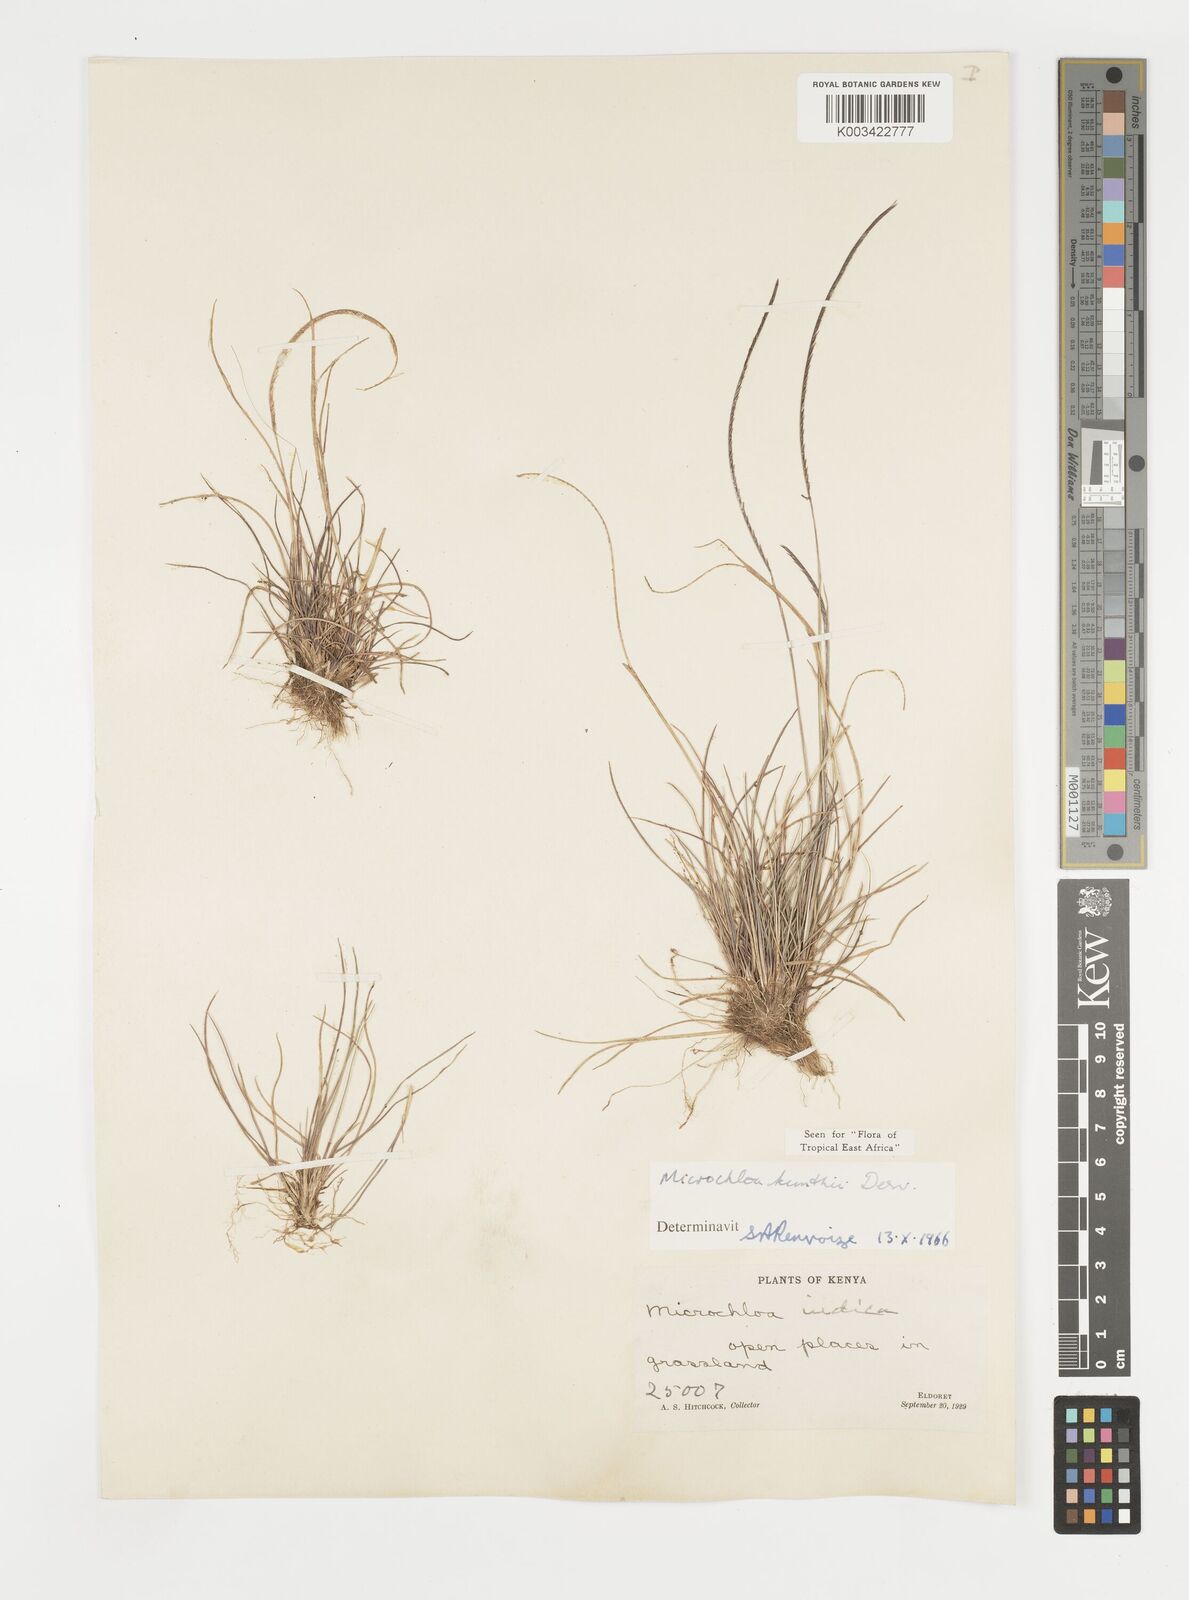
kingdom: Plantae
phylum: Tracheophyta
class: Liliopsida
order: Poales
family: Poaceae
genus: Microchloa
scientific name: Microchloa kunthii
